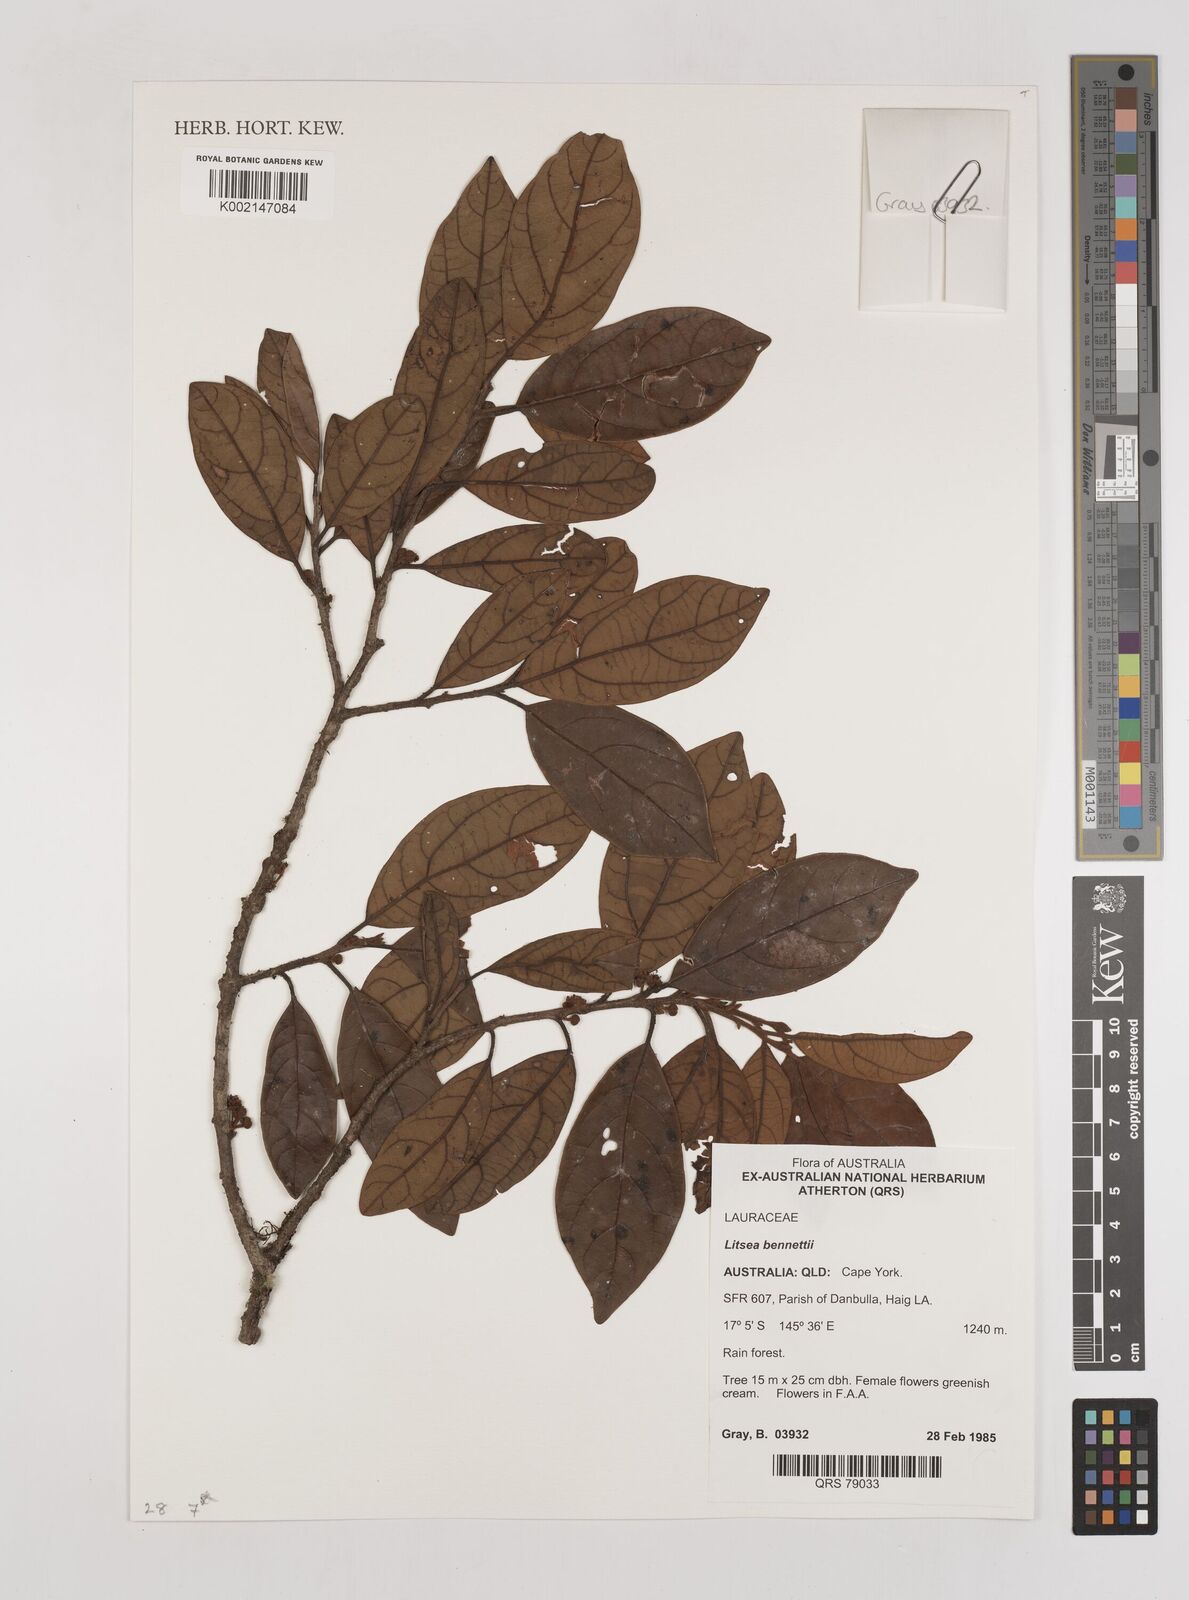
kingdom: Plantae
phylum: Tracheophyta
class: Magnoliopsida
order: Laurales
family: Lauraceae
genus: Litsea
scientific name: Litsea bennettii
